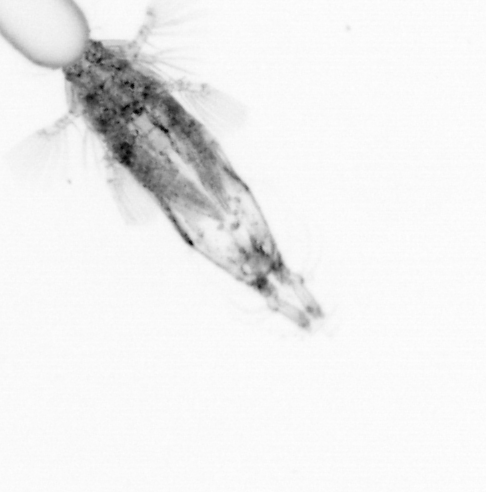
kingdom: Animalia
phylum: Arthropoda
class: Copepoda
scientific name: Copepoda
